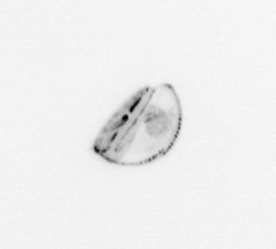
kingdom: Chromista
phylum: Ochrophyta
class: Bacillariophyceae
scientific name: Bacillariophyceae
